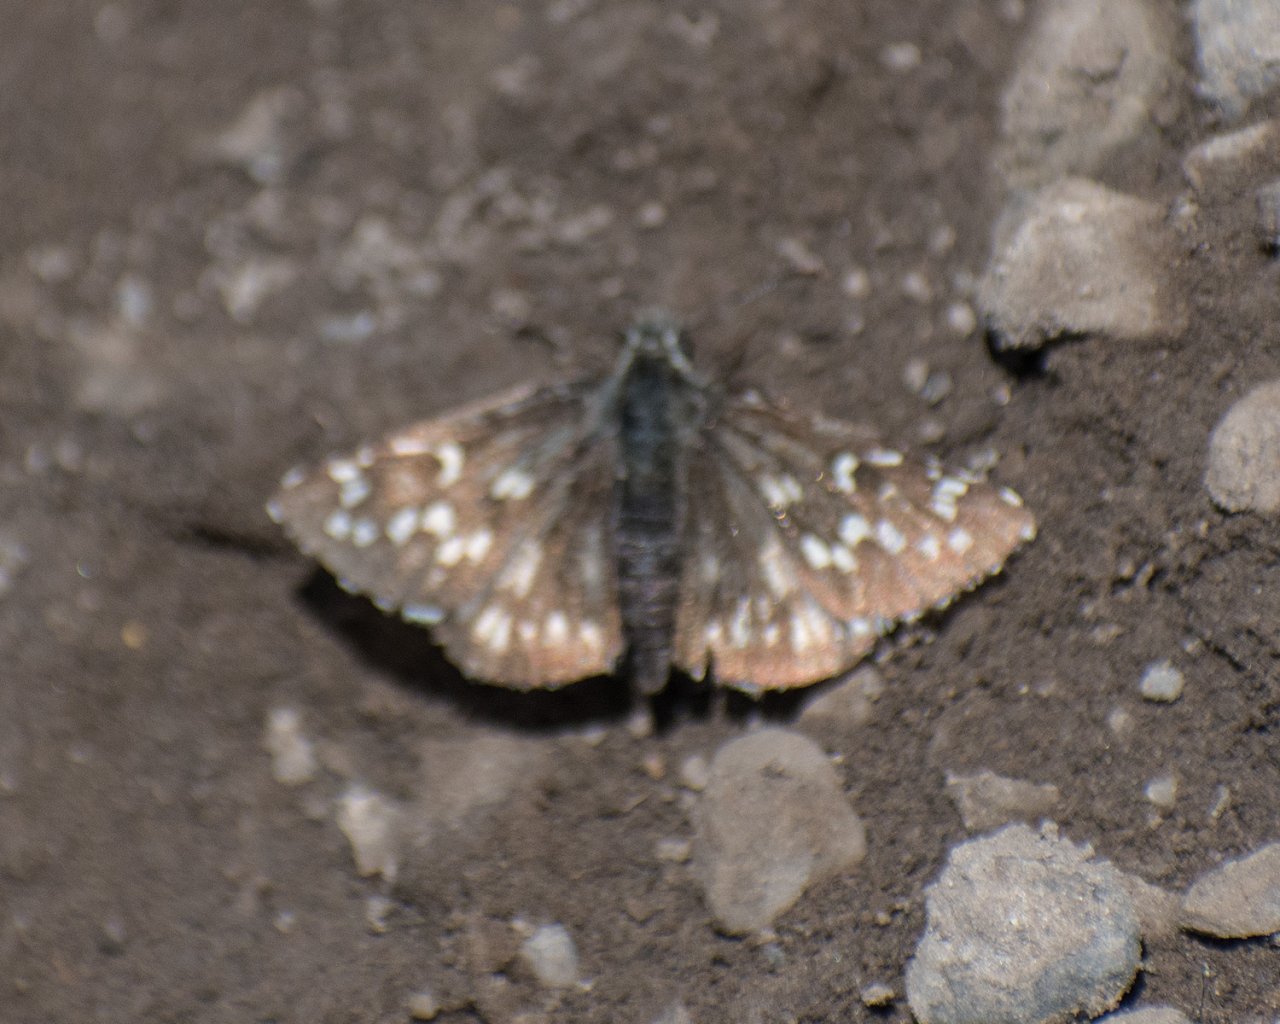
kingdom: Animalia
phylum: Arthropoda
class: Insecta
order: Lepidoptera
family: Hesperiidae
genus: Pyrgus
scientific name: Pyrgus centaureae
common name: Grizzled Skipper
